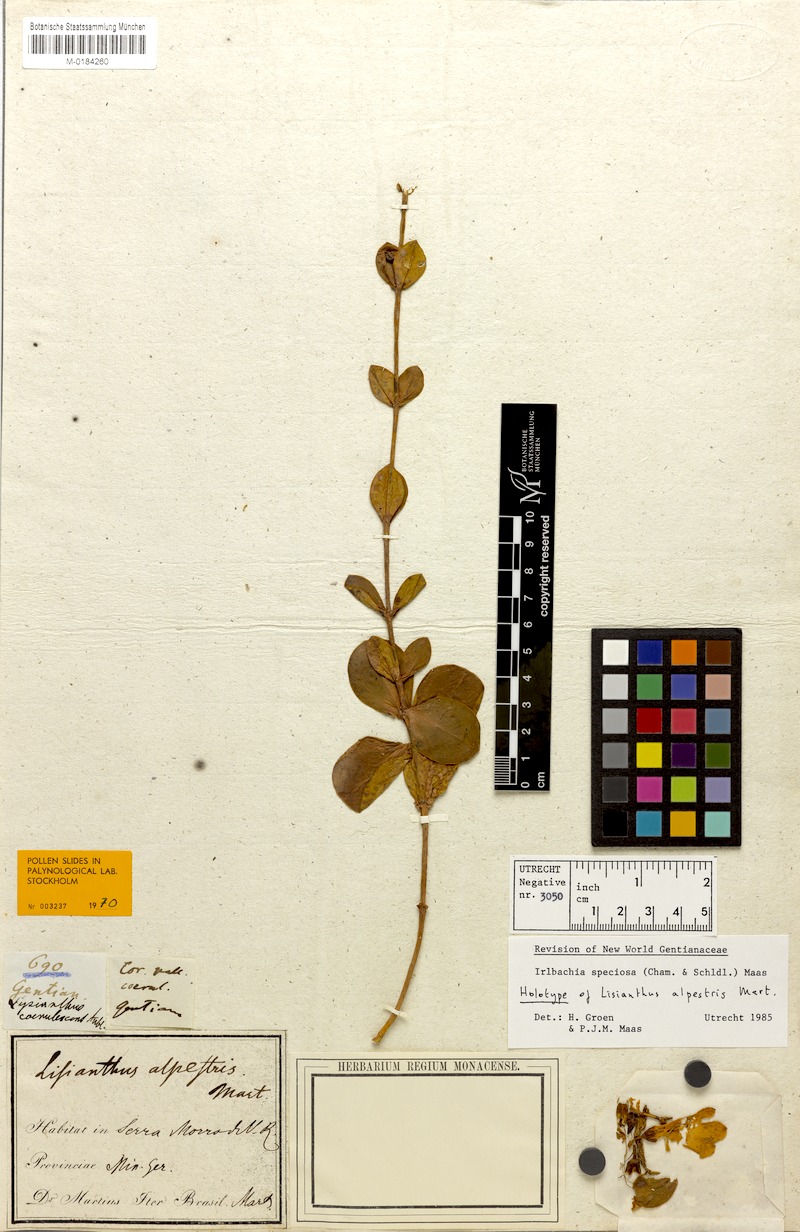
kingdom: Plantae
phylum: Tracheophyta
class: Magnoliopsida
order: Gentianales
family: Gentianaceae
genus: Calolisianthus
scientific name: Calolisianthus speciosus
